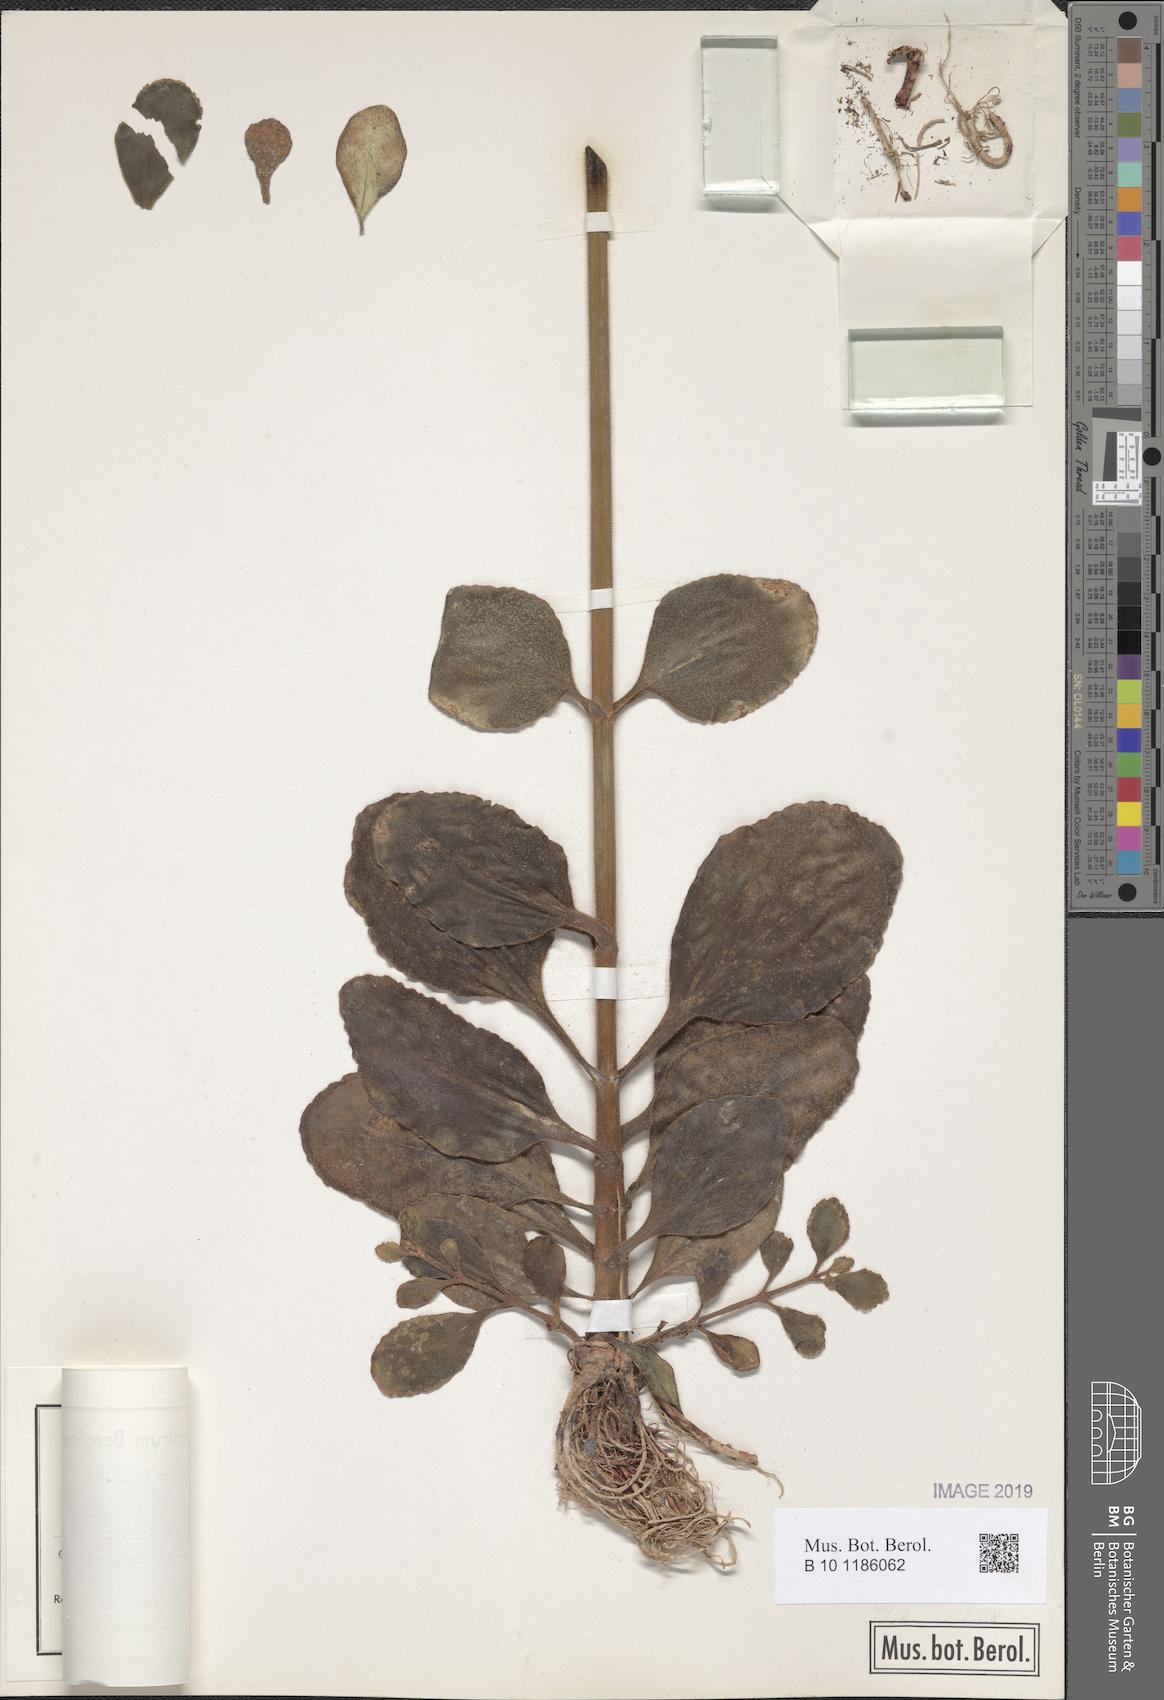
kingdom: Plantae
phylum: Tracheophyta
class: Magnoliopsida
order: Saxifragales
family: Crassulaceae
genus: Kalanchoe
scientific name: Kalanchoe lateritia
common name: Kalanchoe
